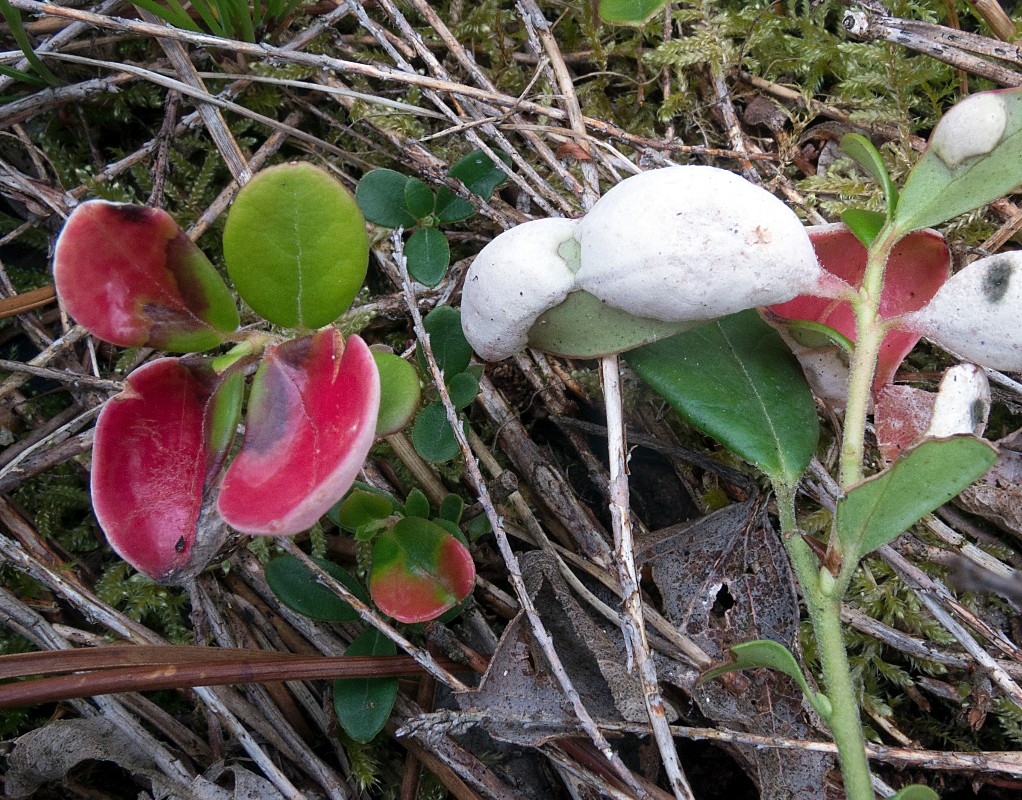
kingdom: Fungi
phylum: Basidiomycota
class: Exobasidiomycetes
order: Exobasidiales
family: Exobasidiaceae
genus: Exobasidium
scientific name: Exobasidium vaccinii
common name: tyttebærblad-bøllesvamp
